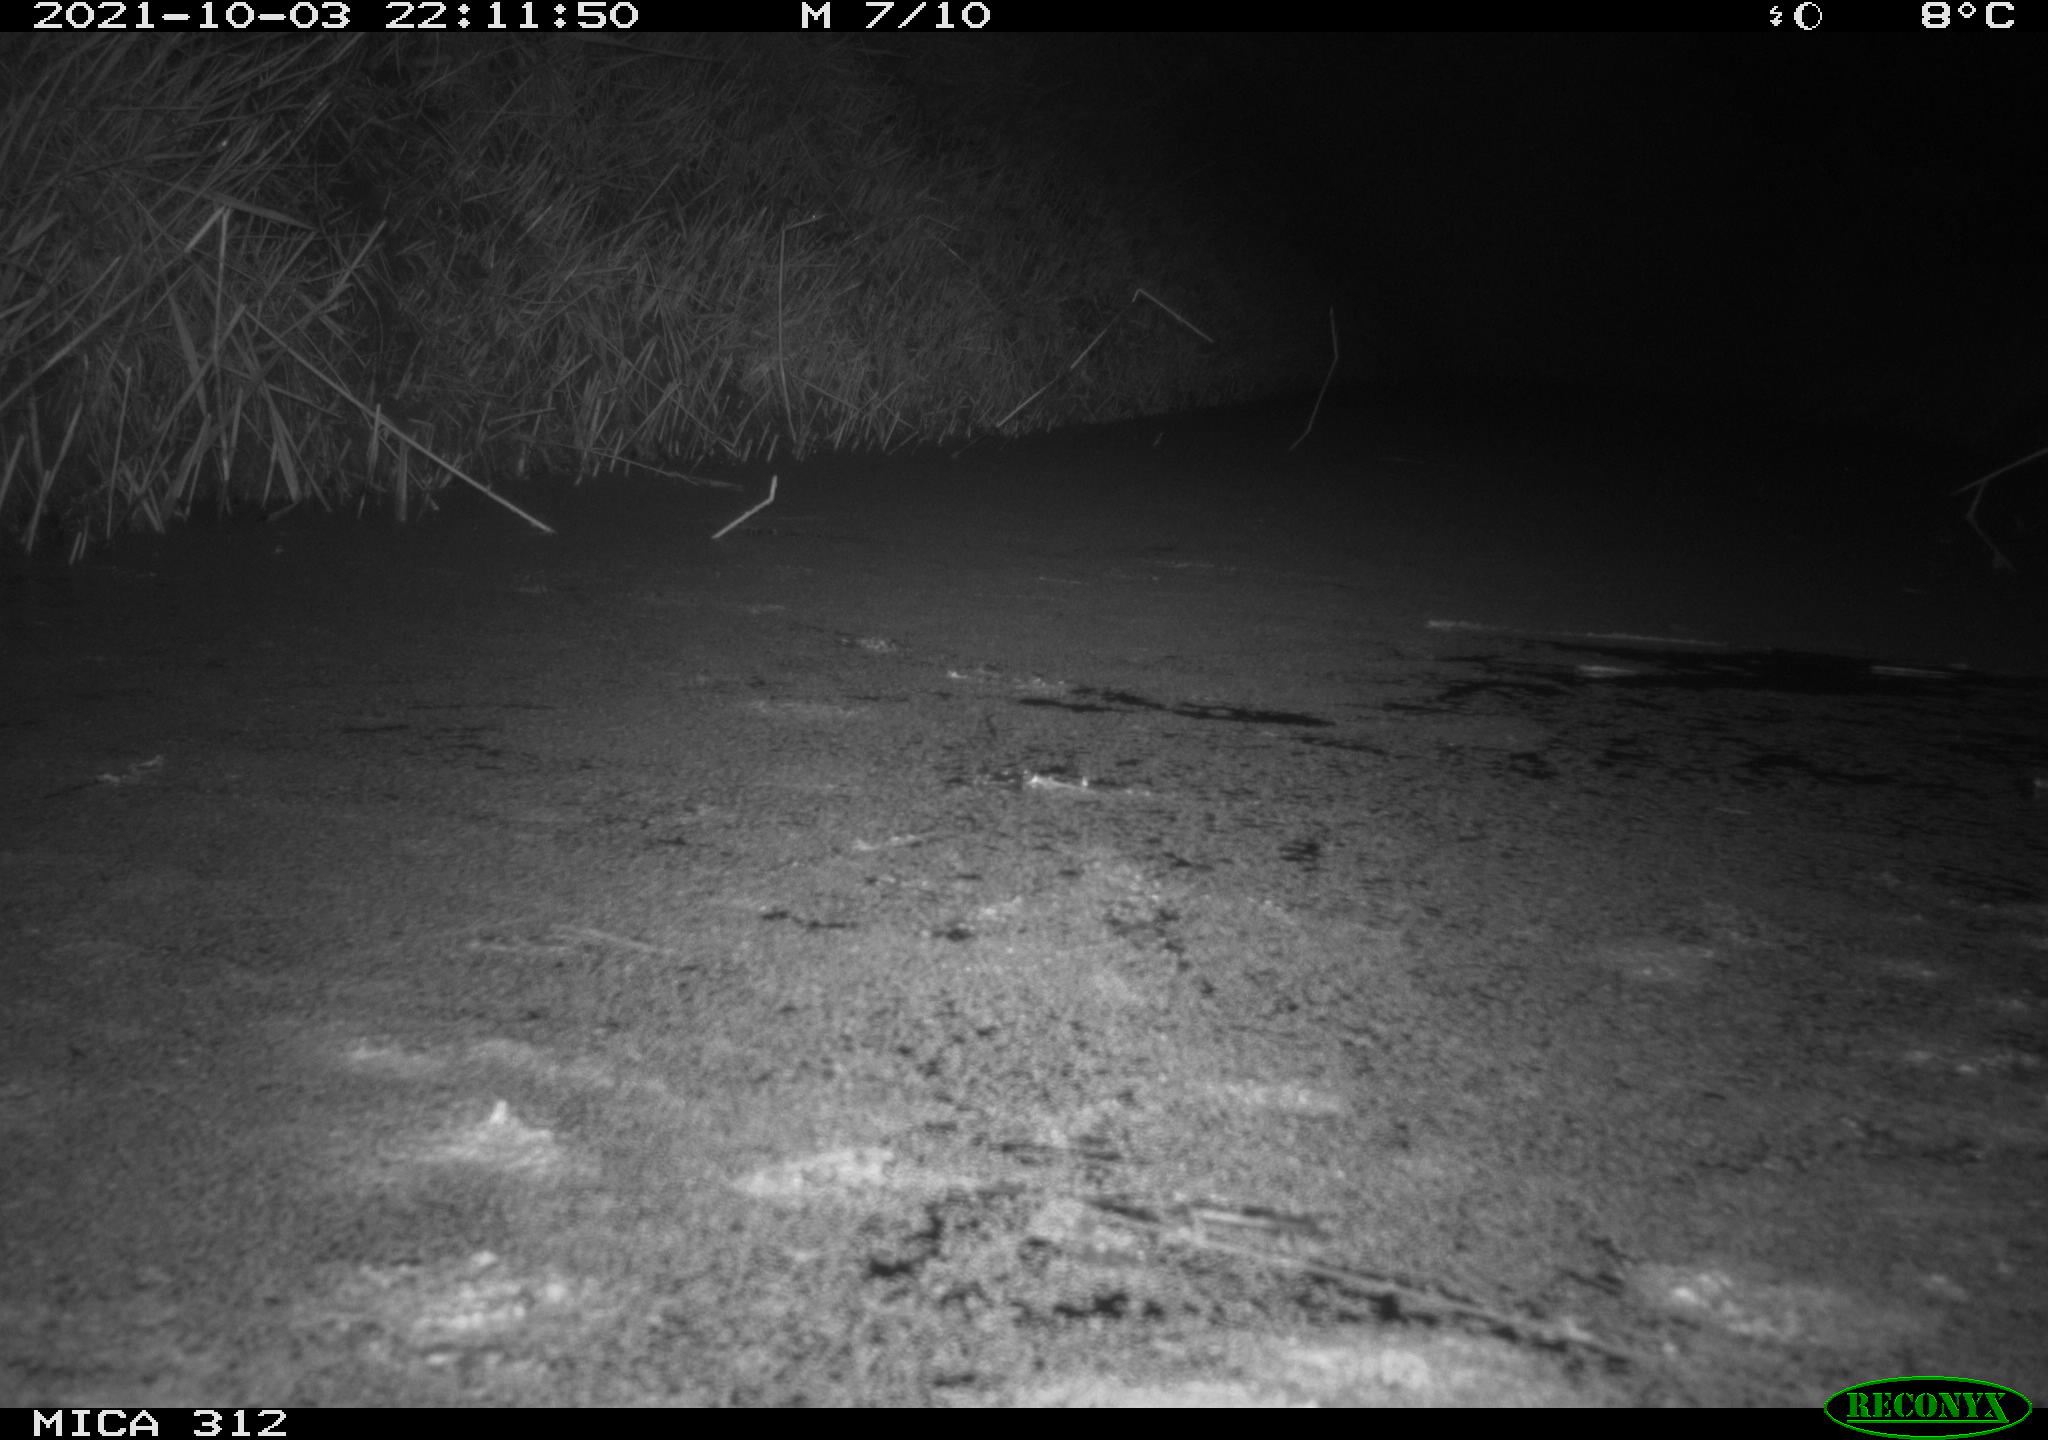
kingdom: Animalia
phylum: Chordata
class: Mammalia
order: Rodentia
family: Muridae
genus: Rattus
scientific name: Rattus norvegicus
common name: Brown rat
